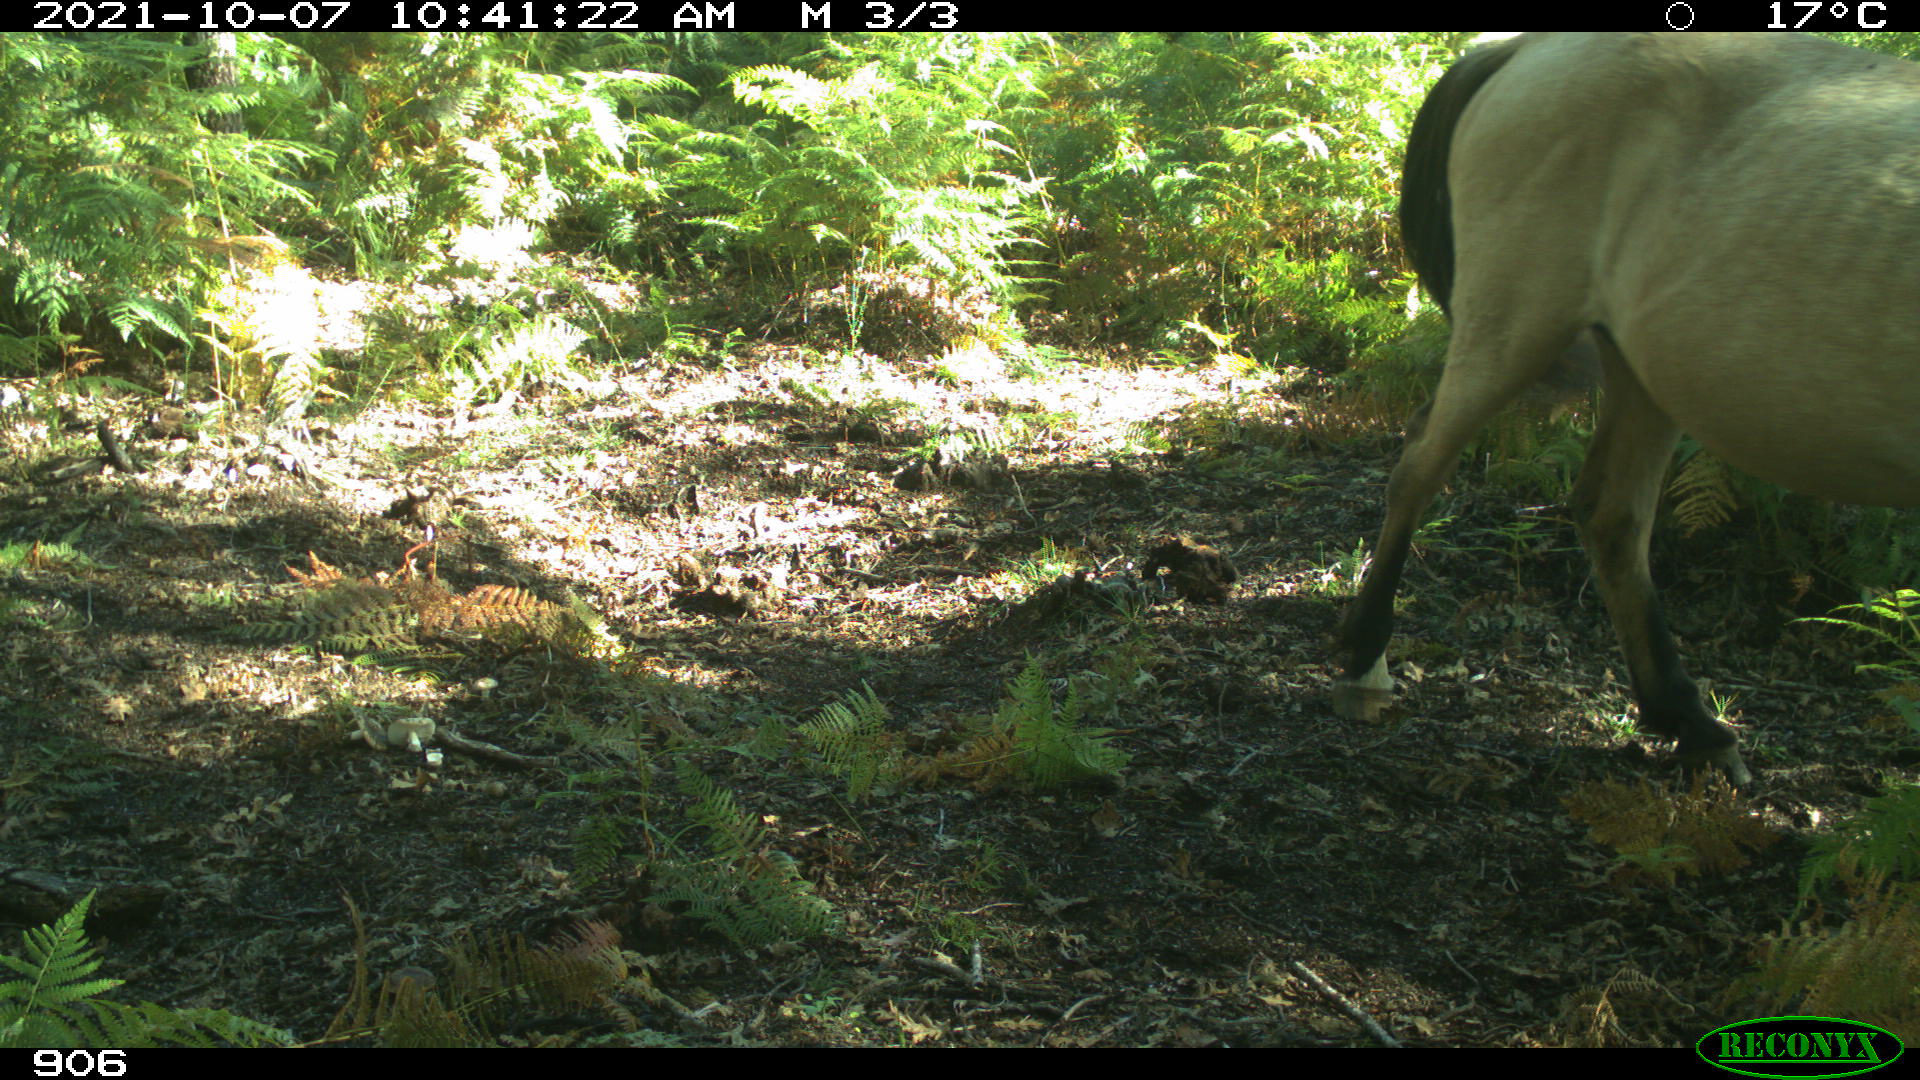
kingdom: Animalia
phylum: Chordata
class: Mammalia
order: Perissodactyla
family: Equidae
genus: Equus
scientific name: Equus caballus
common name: Horse
